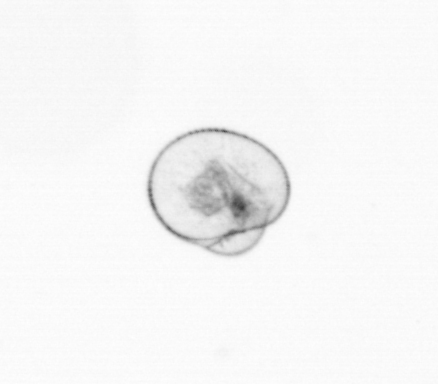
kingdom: Chromista
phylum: Myzozoa
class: Dinophyceae
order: Noctilucales
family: Noctilucaceae
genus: Noctiluca
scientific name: Noctiluca scintillans
